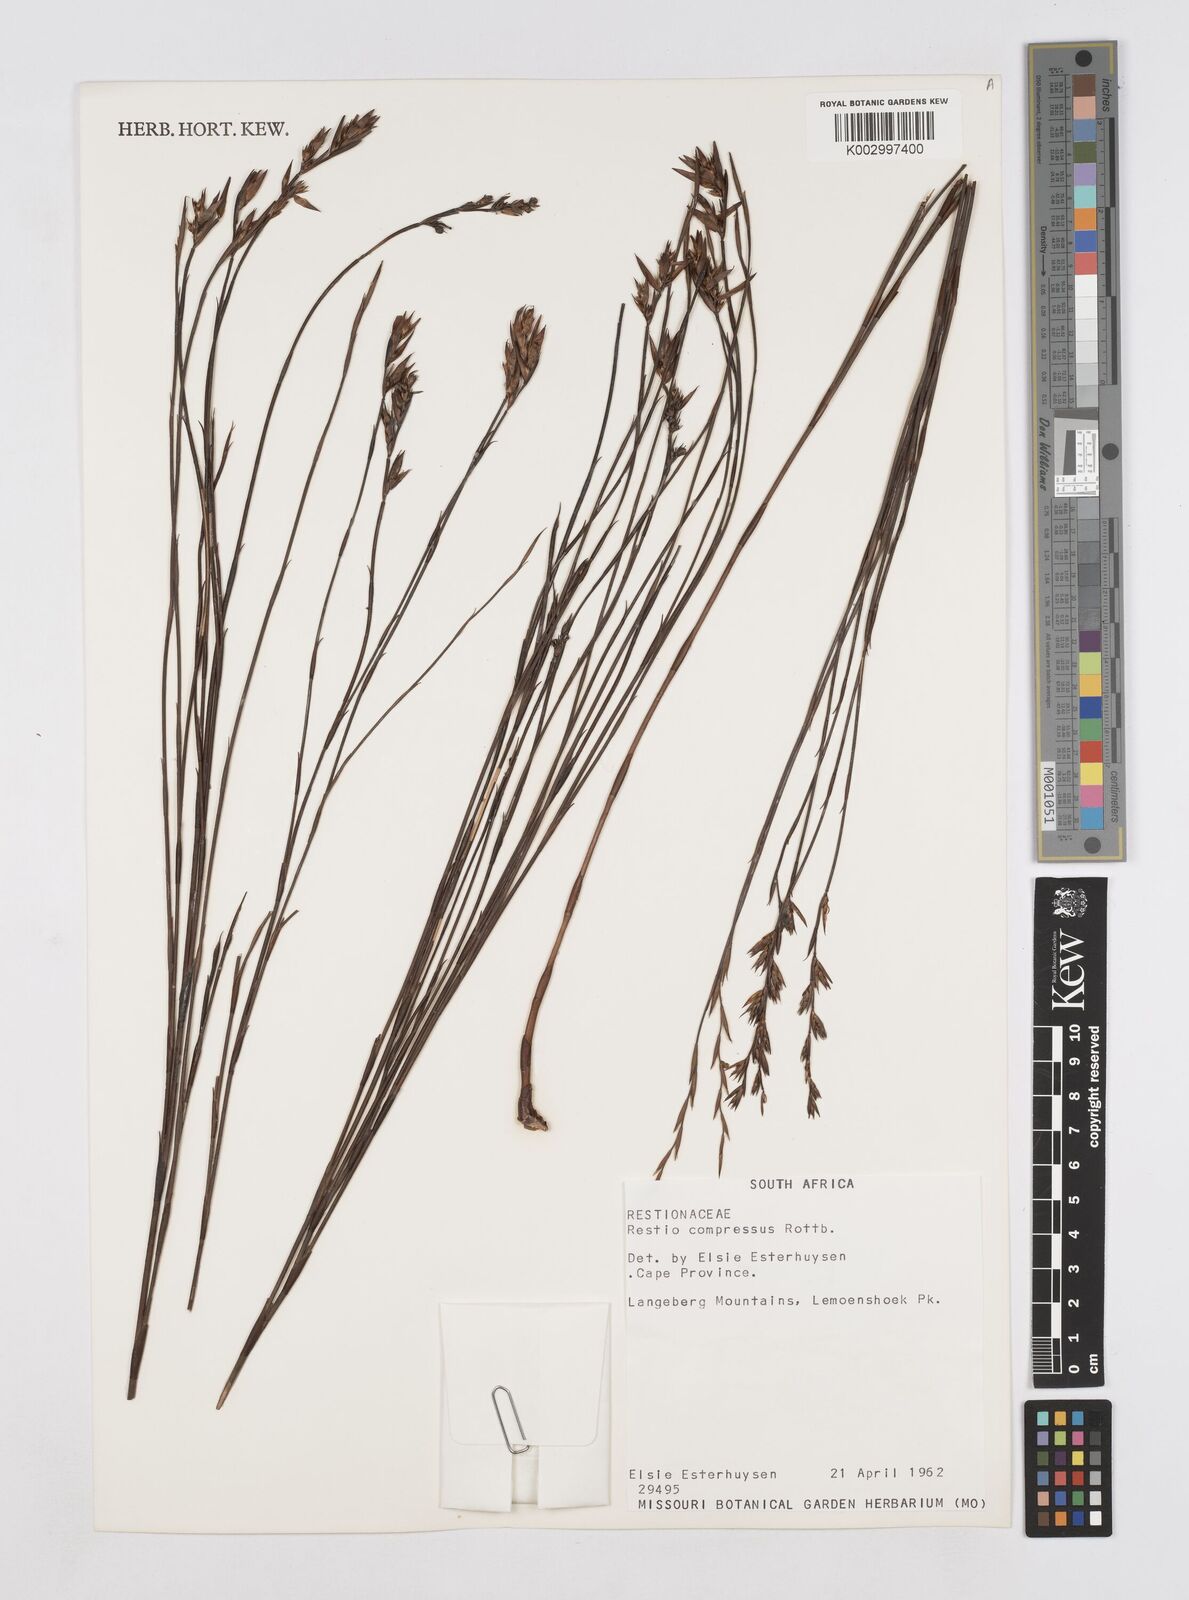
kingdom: Plantae
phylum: Tracheophyta
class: Liliopsida
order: Poales
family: Restionaceae
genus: Platycaulos
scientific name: Platycaulos compressus
